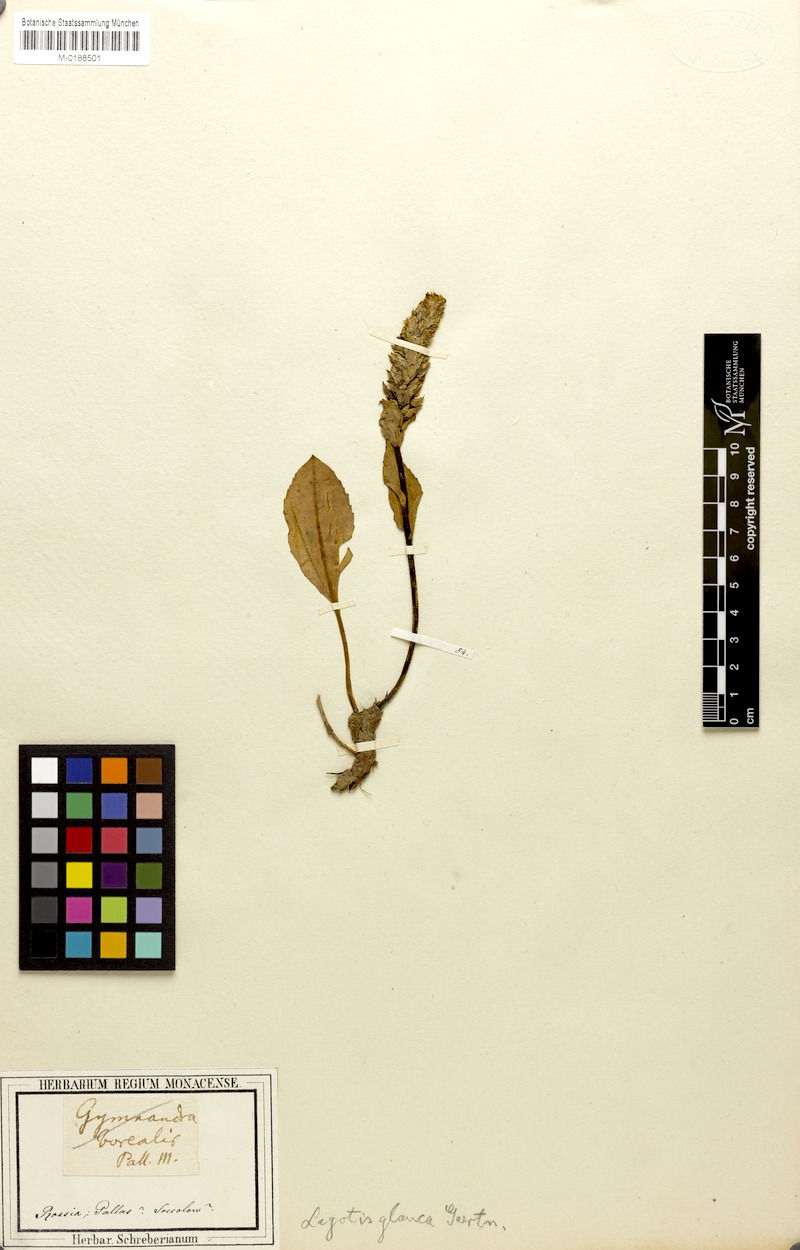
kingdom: Plantae
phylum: Tracheophyta
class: Magnoliopsida
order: Lamiales
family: Plantaginaceae
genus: Lagotis
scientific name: Lagotis glauca
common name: Glaucous weaselsnout
